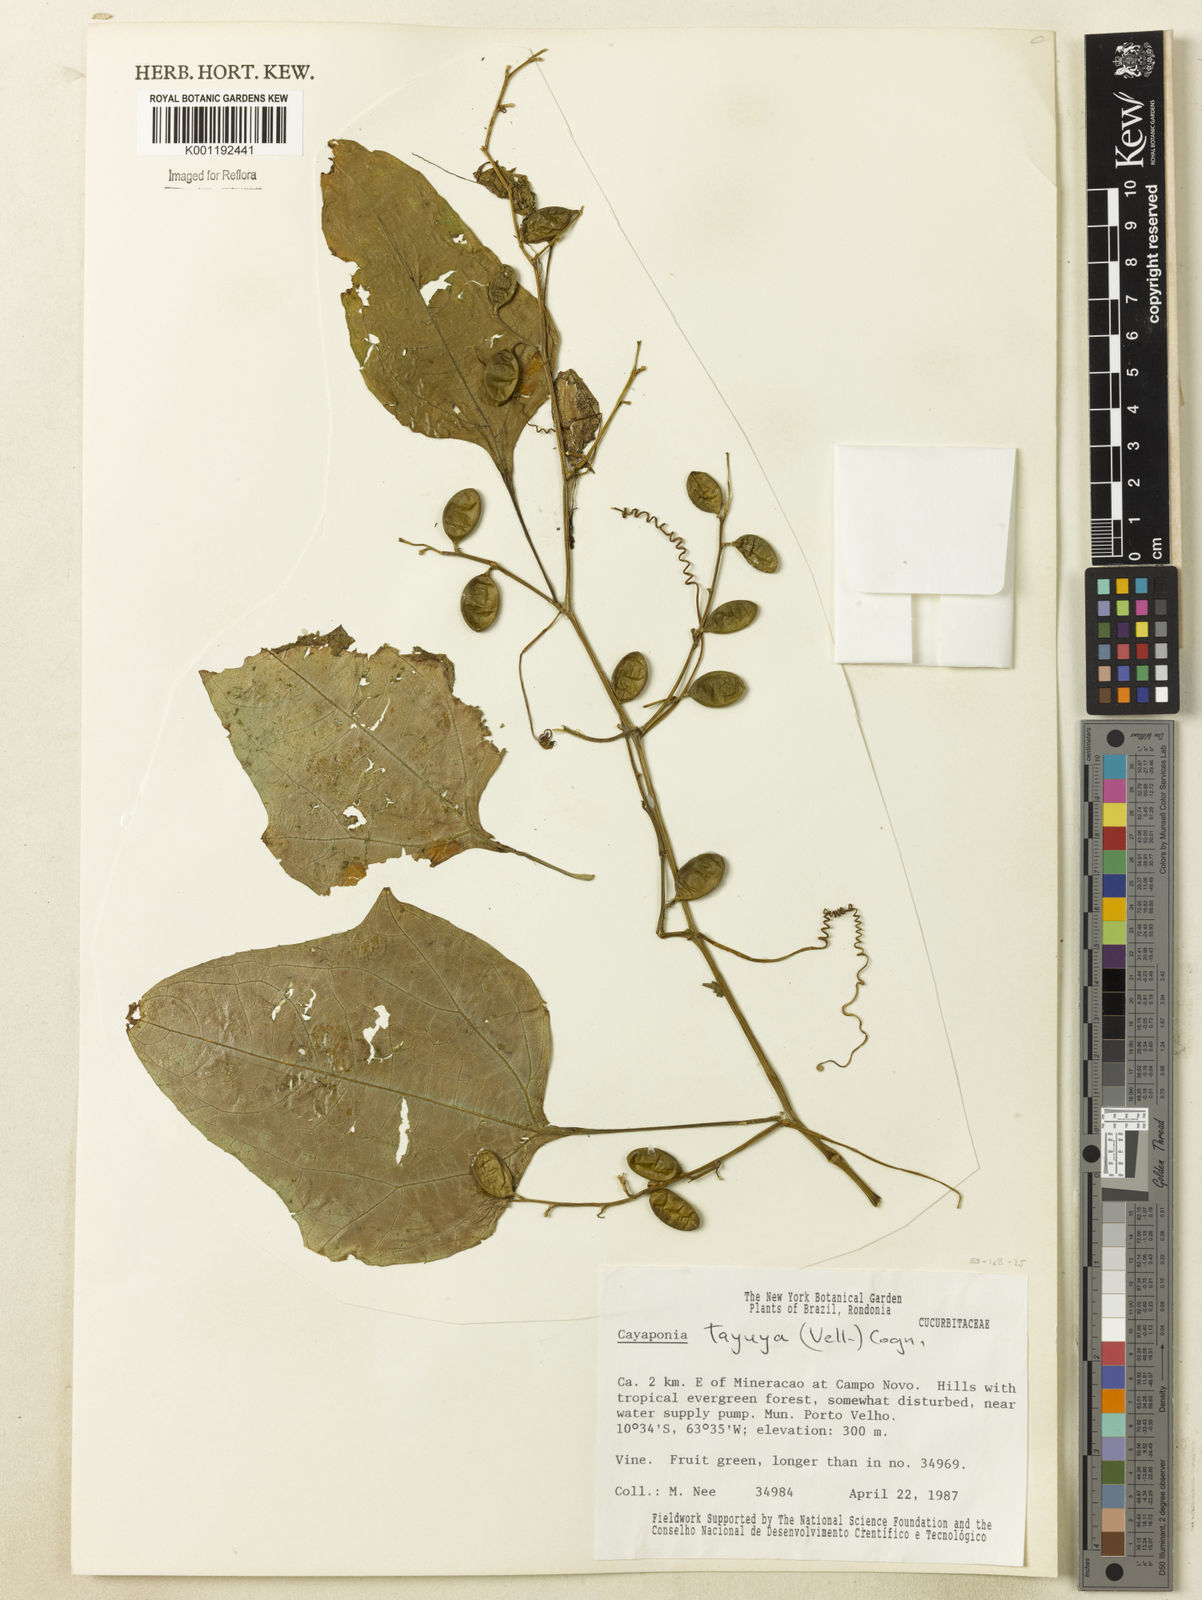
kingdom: Plantae
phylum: Tracheophyta
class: Magnoliopsida
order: Cucurbitales
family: Cucurbitaceae
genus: Cayaponia
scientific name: Cayaponia tayuya
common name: Tayuya
